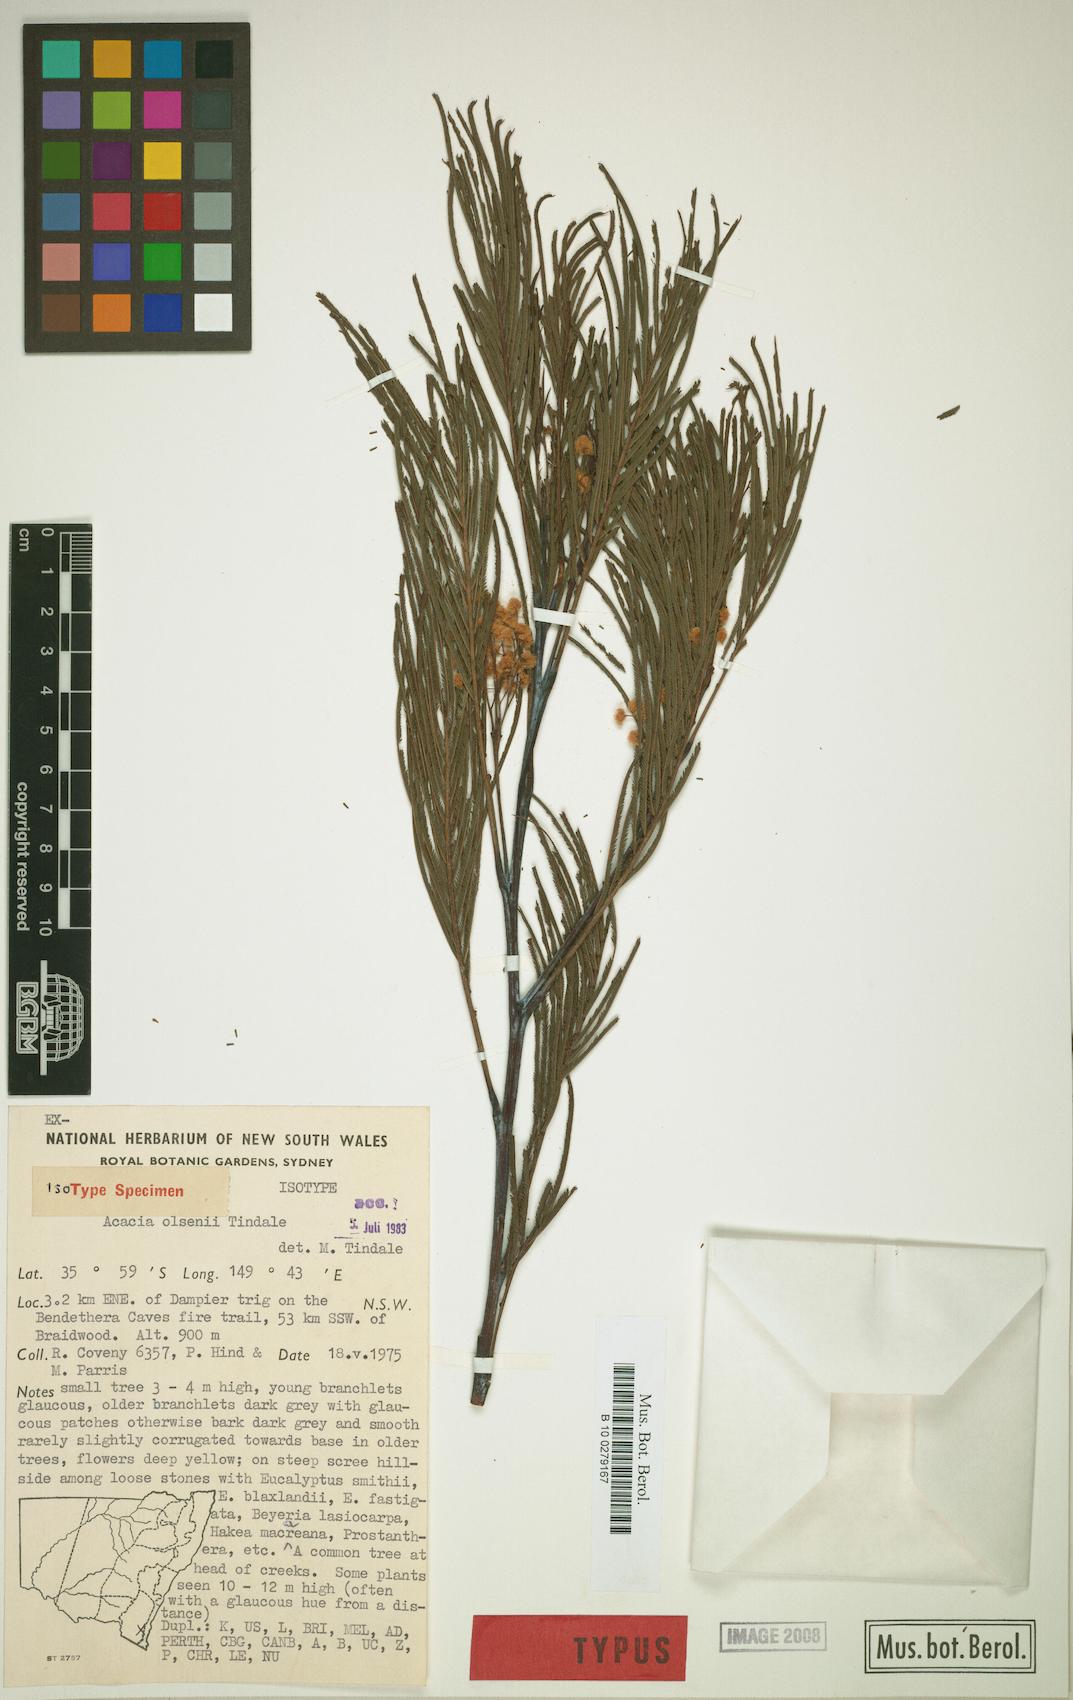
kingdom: Plantae
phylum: Tracheophyta
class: Magnoliopsida
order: Fabales
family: Fabaceae
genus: Acacia
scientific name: Acacia olsenii
